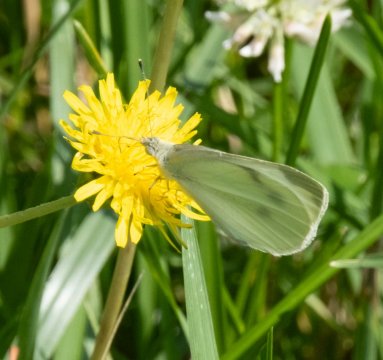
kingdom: Animalia
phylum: Arthropoda
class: Insecta
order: Lepidoptera
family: Pieridae
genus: Pieris
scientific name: Pieris rapae
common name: Cabbage White
